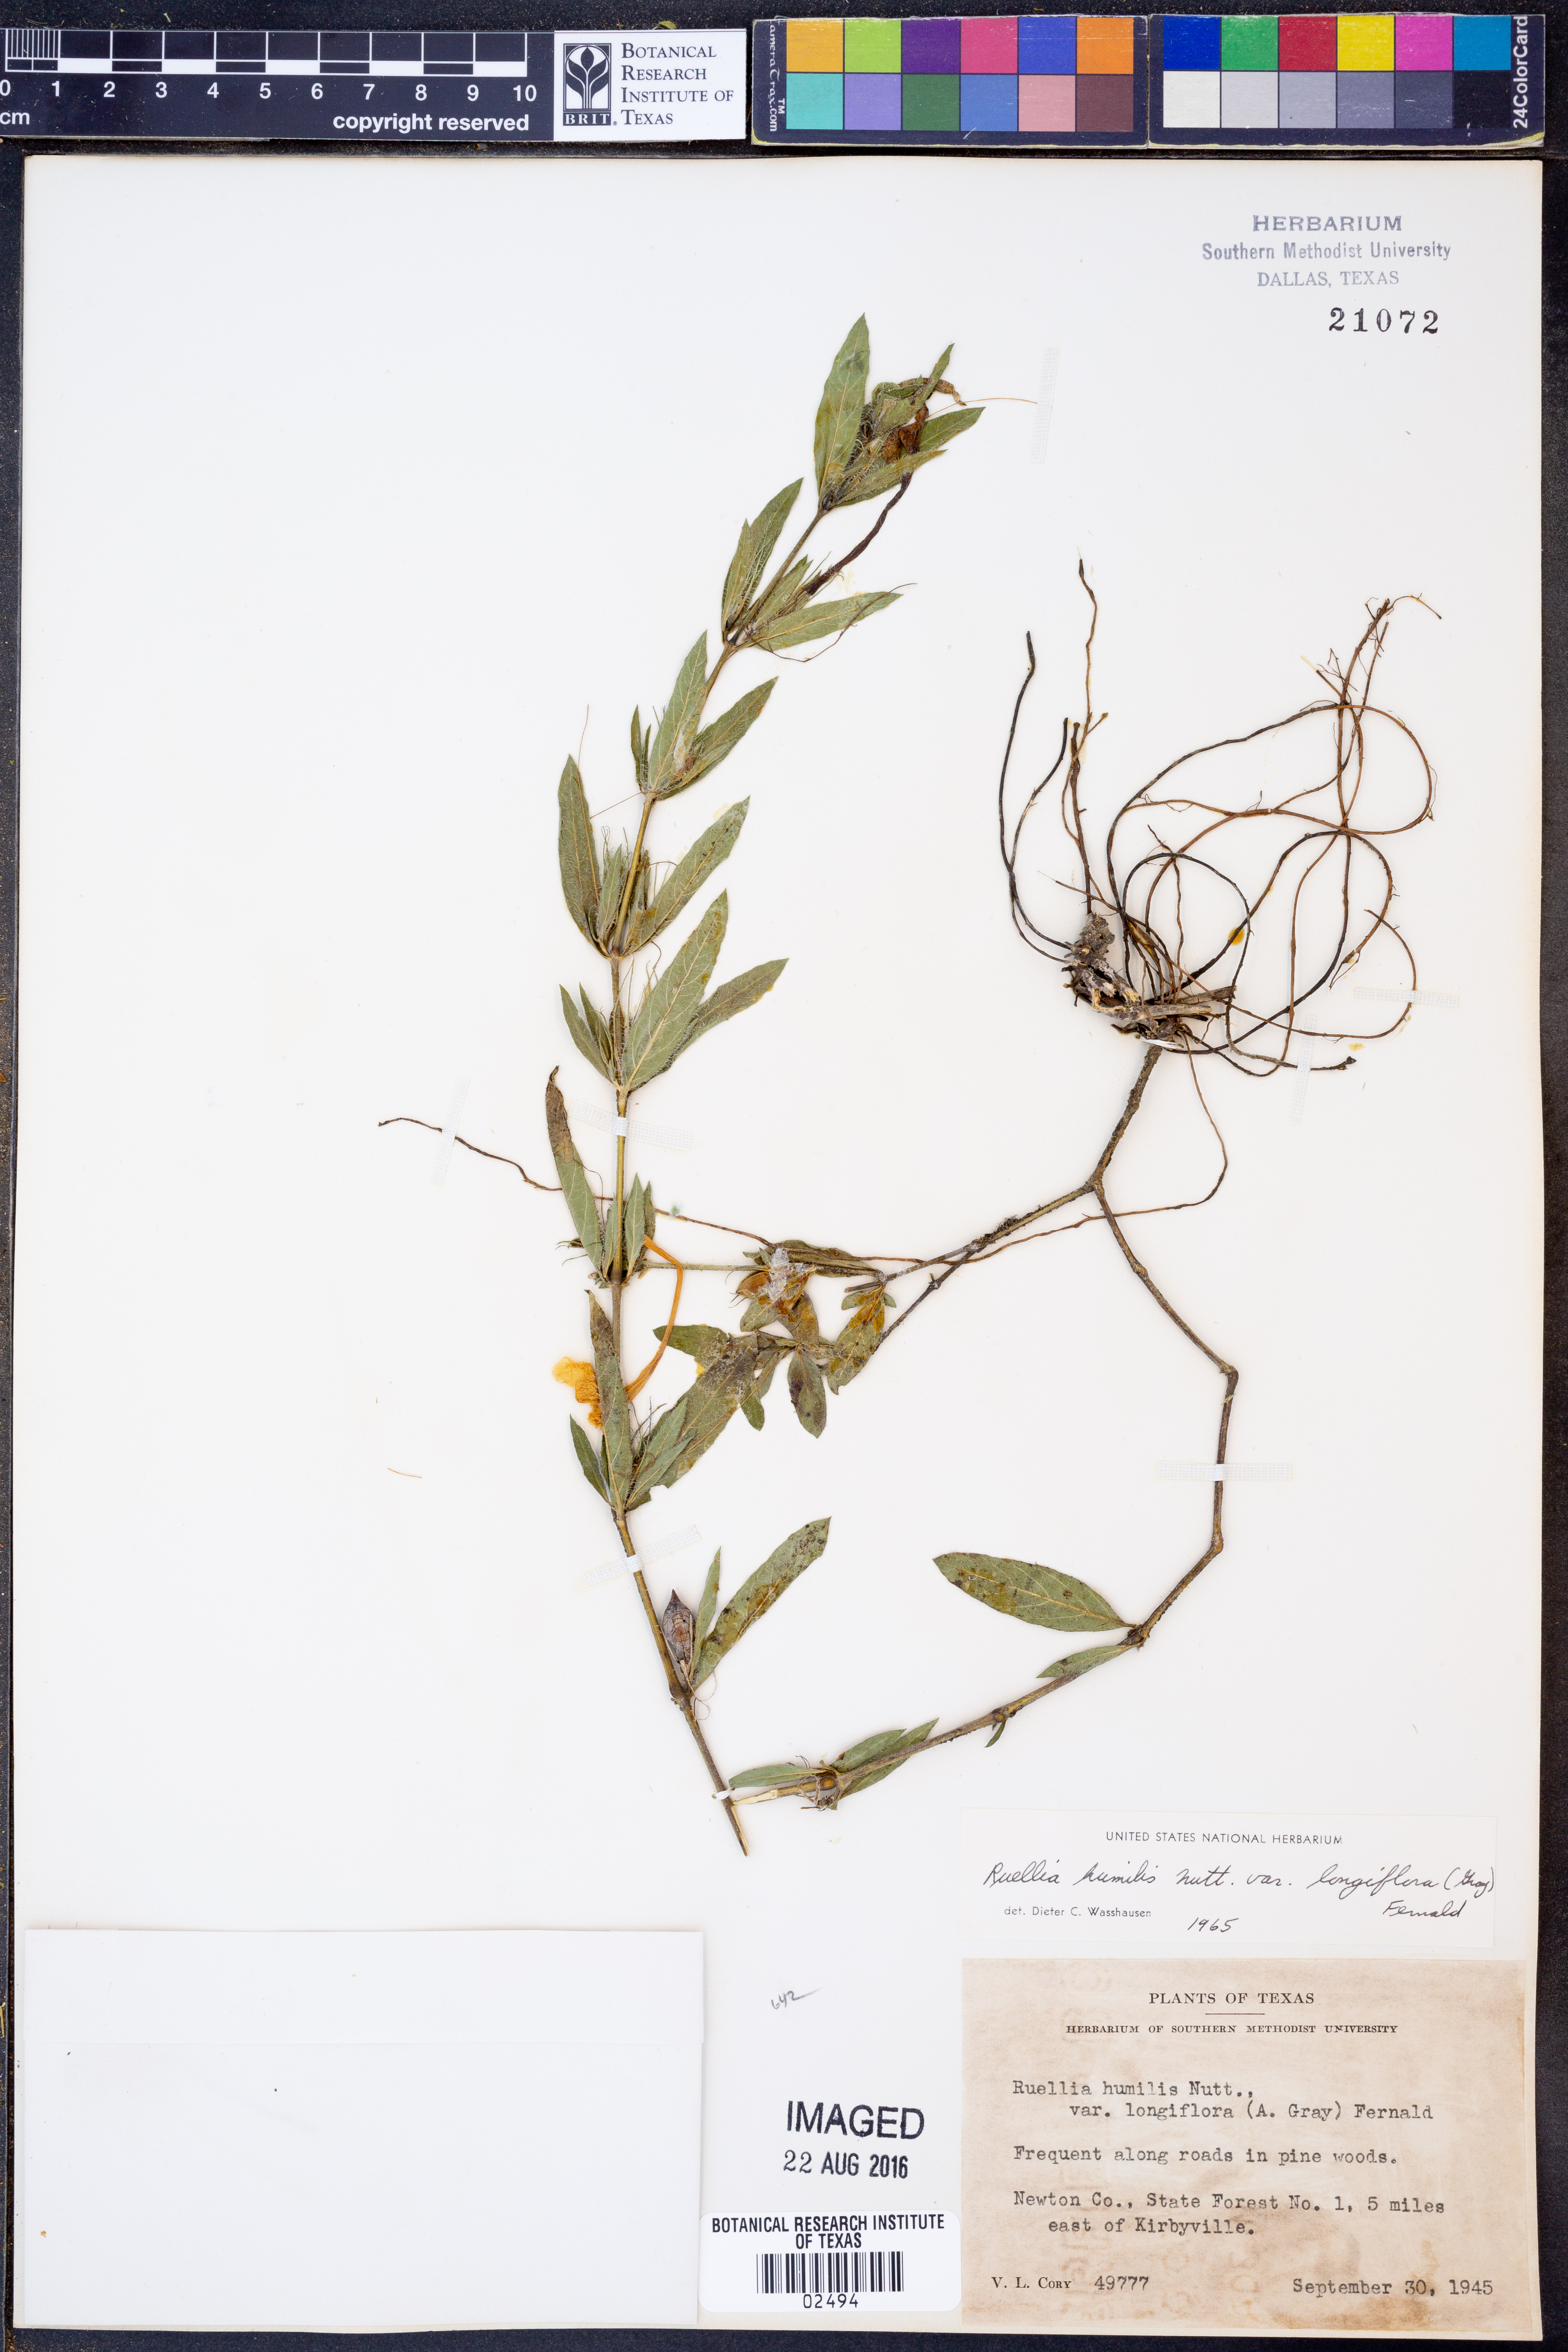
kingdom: Plantae
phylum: Tracheophyta
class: Magnoliopsida
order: Lamiales
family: Acanthaceae
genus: Ruellia
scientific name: Ruellia humilis
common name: Fringe-leaf ruellia
